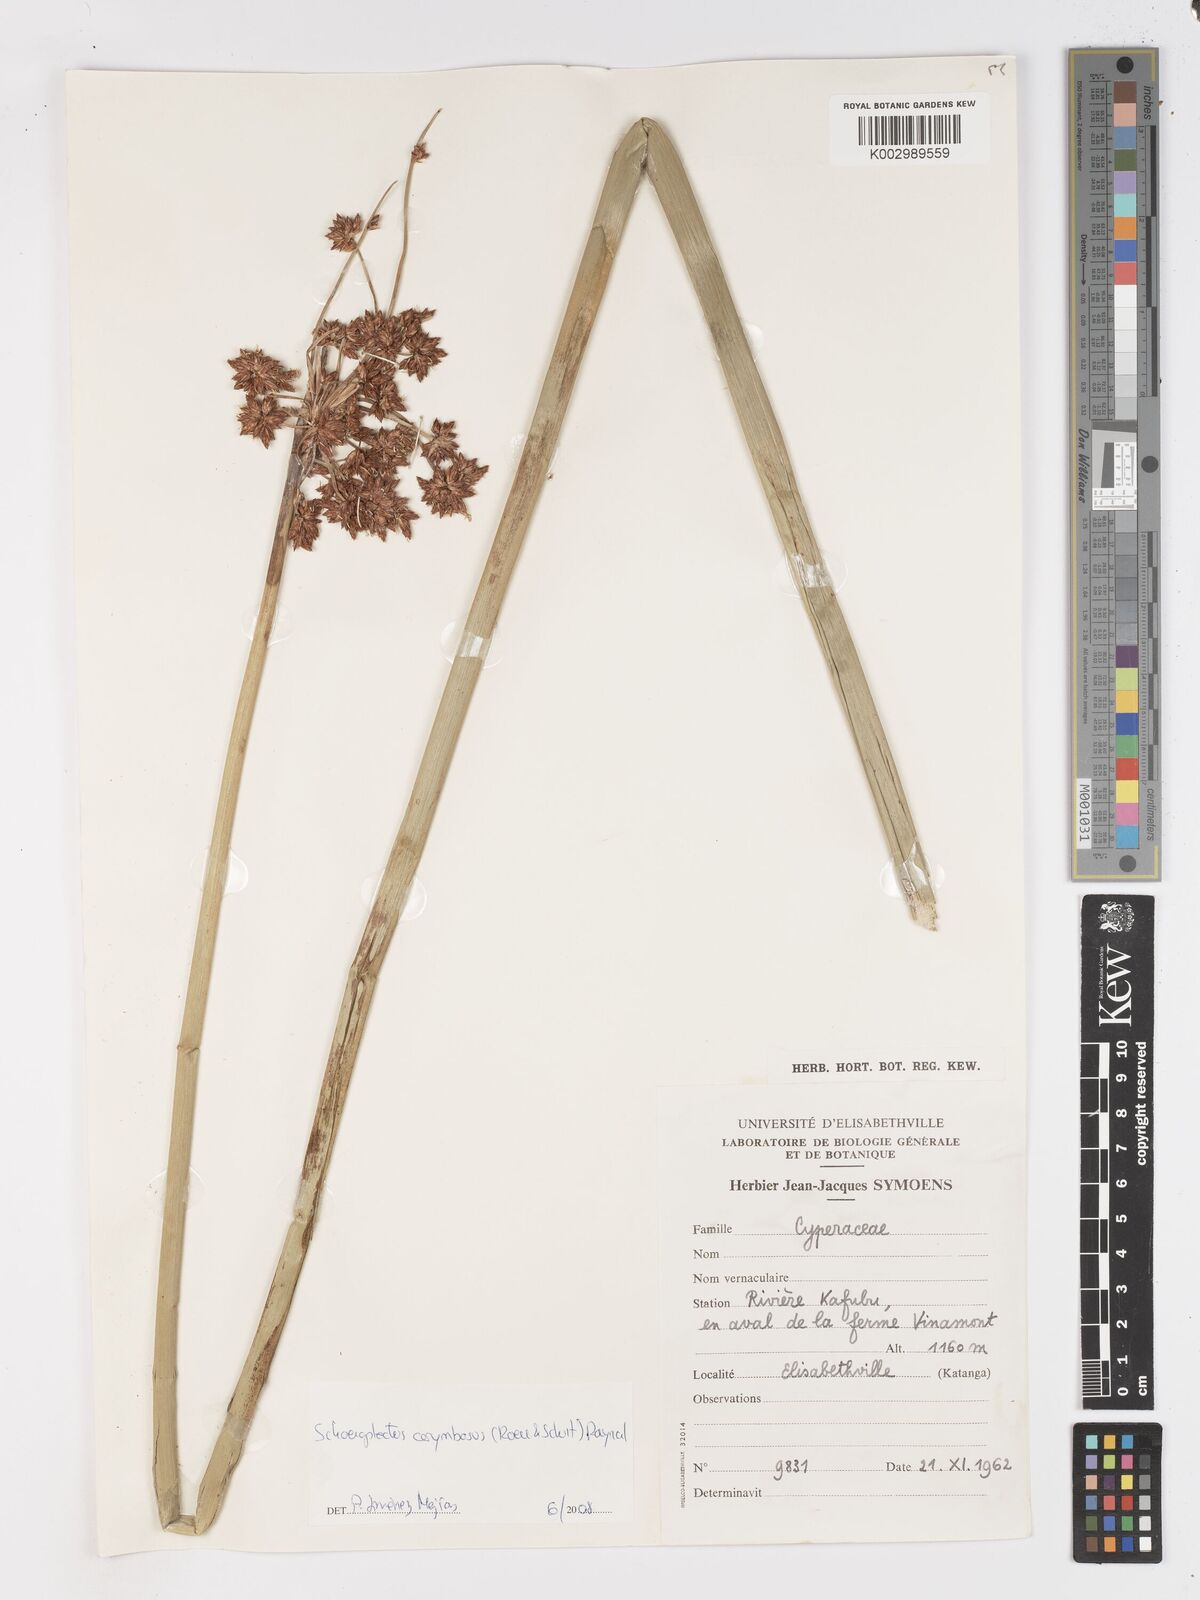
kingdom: Plantae
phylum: Tracheophyta
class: Liliopsida
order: Poales
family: Cyperaceae
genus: Schoenoplectiella
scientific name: Schoenoplectiella corymbosa
